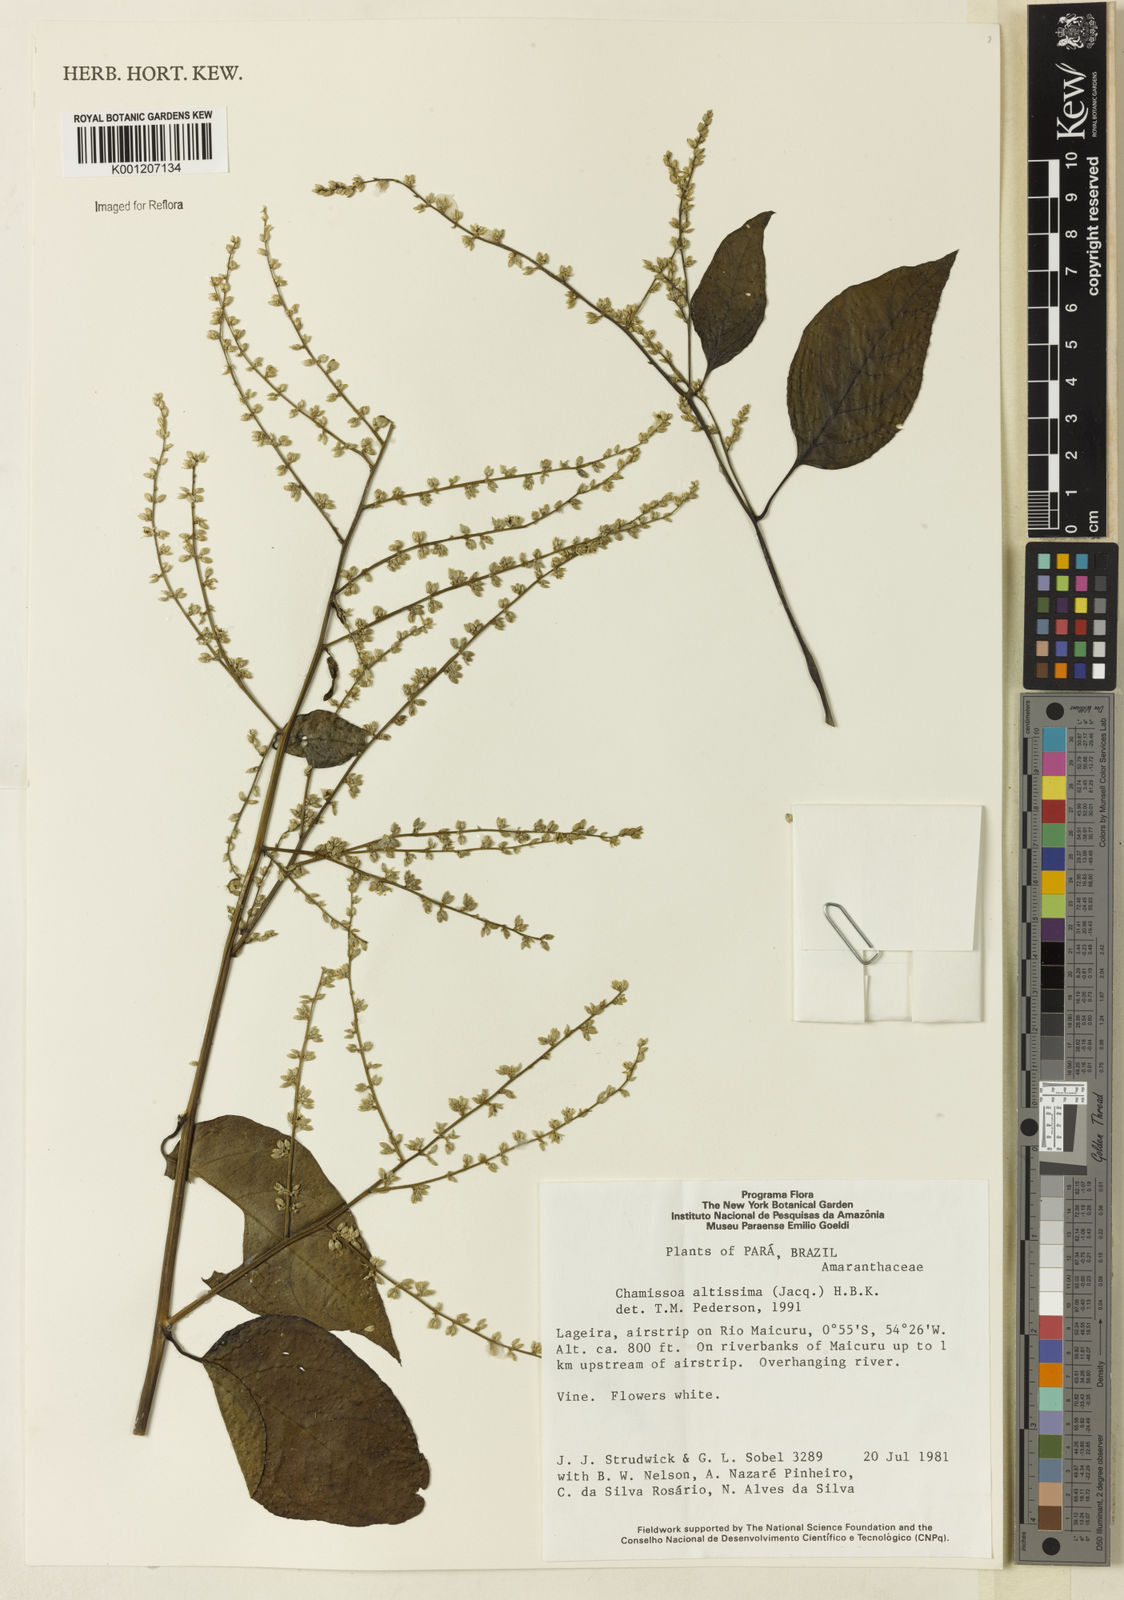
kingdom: Plantae
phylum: Tracheophyta
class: Magnoliopsida
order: Caryophyllales
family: Amaranthaceae
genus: Chamissoa
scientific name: Chamissoa altissima
